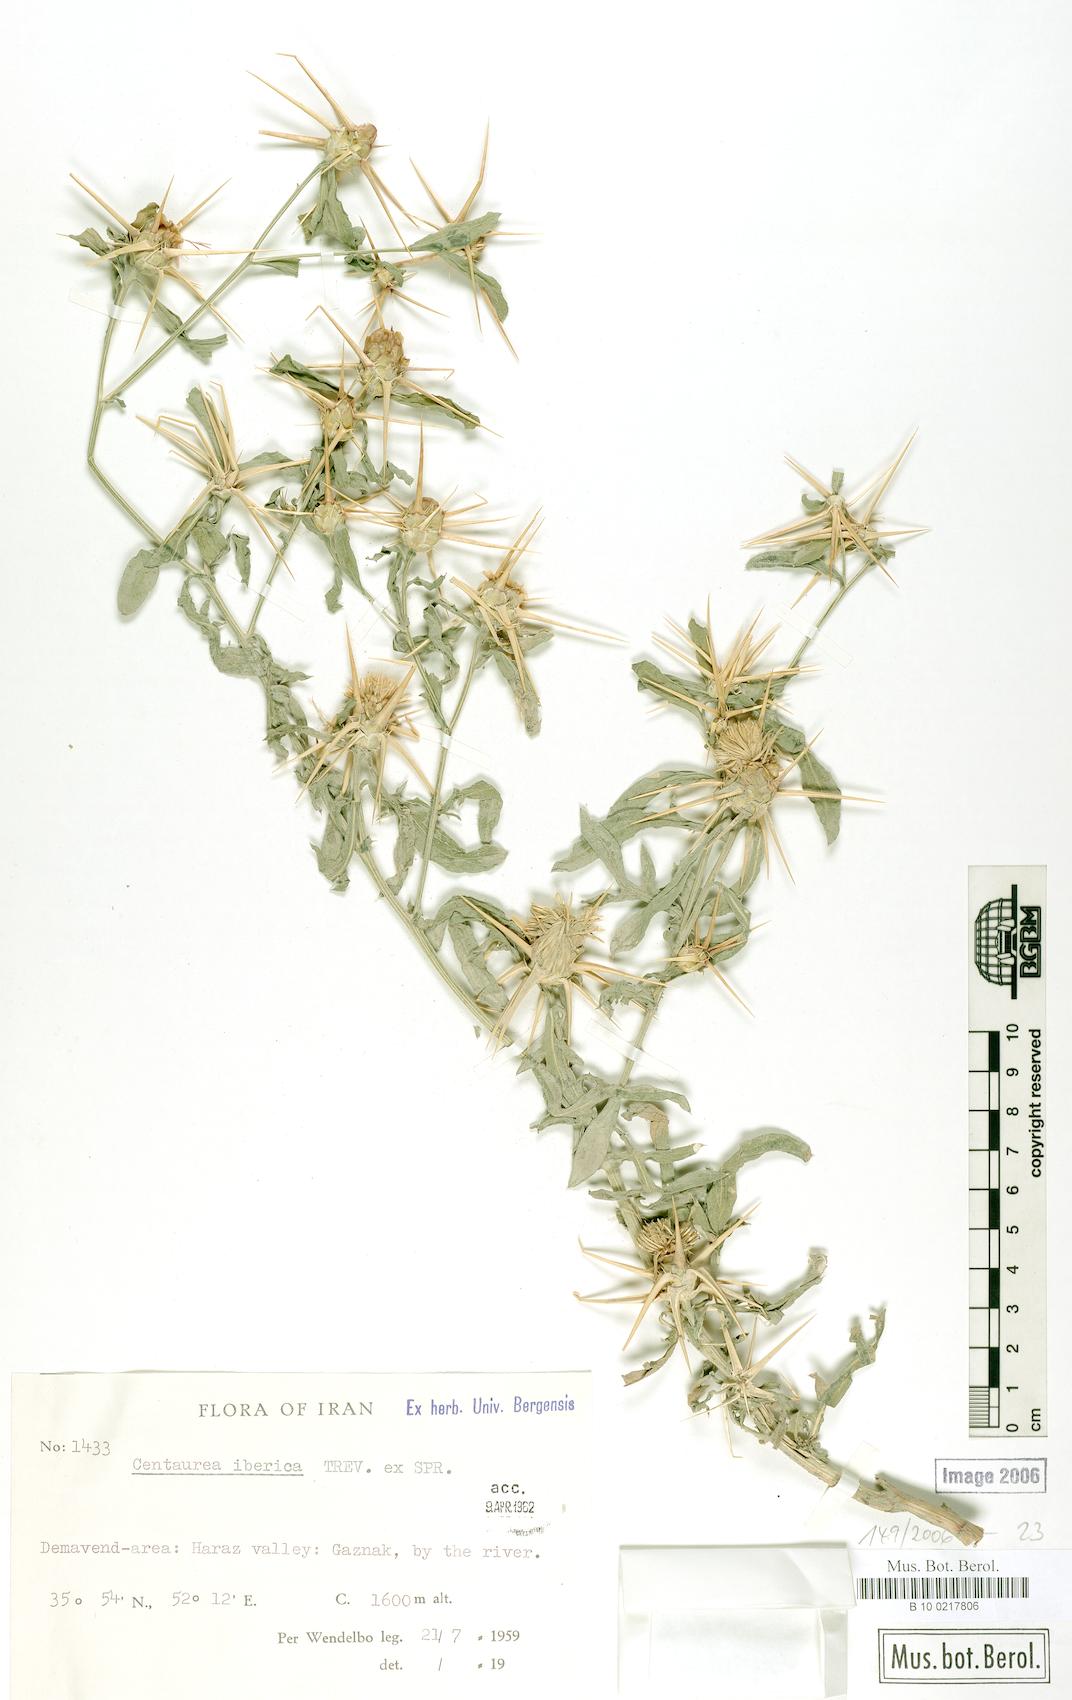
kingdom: Plantae
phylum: Tracheophyta
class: Magnoliopsida
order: Asterales
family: Asteraceae
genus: Centaurea
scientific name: Centaurea iberica
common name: Iberian knapweed
